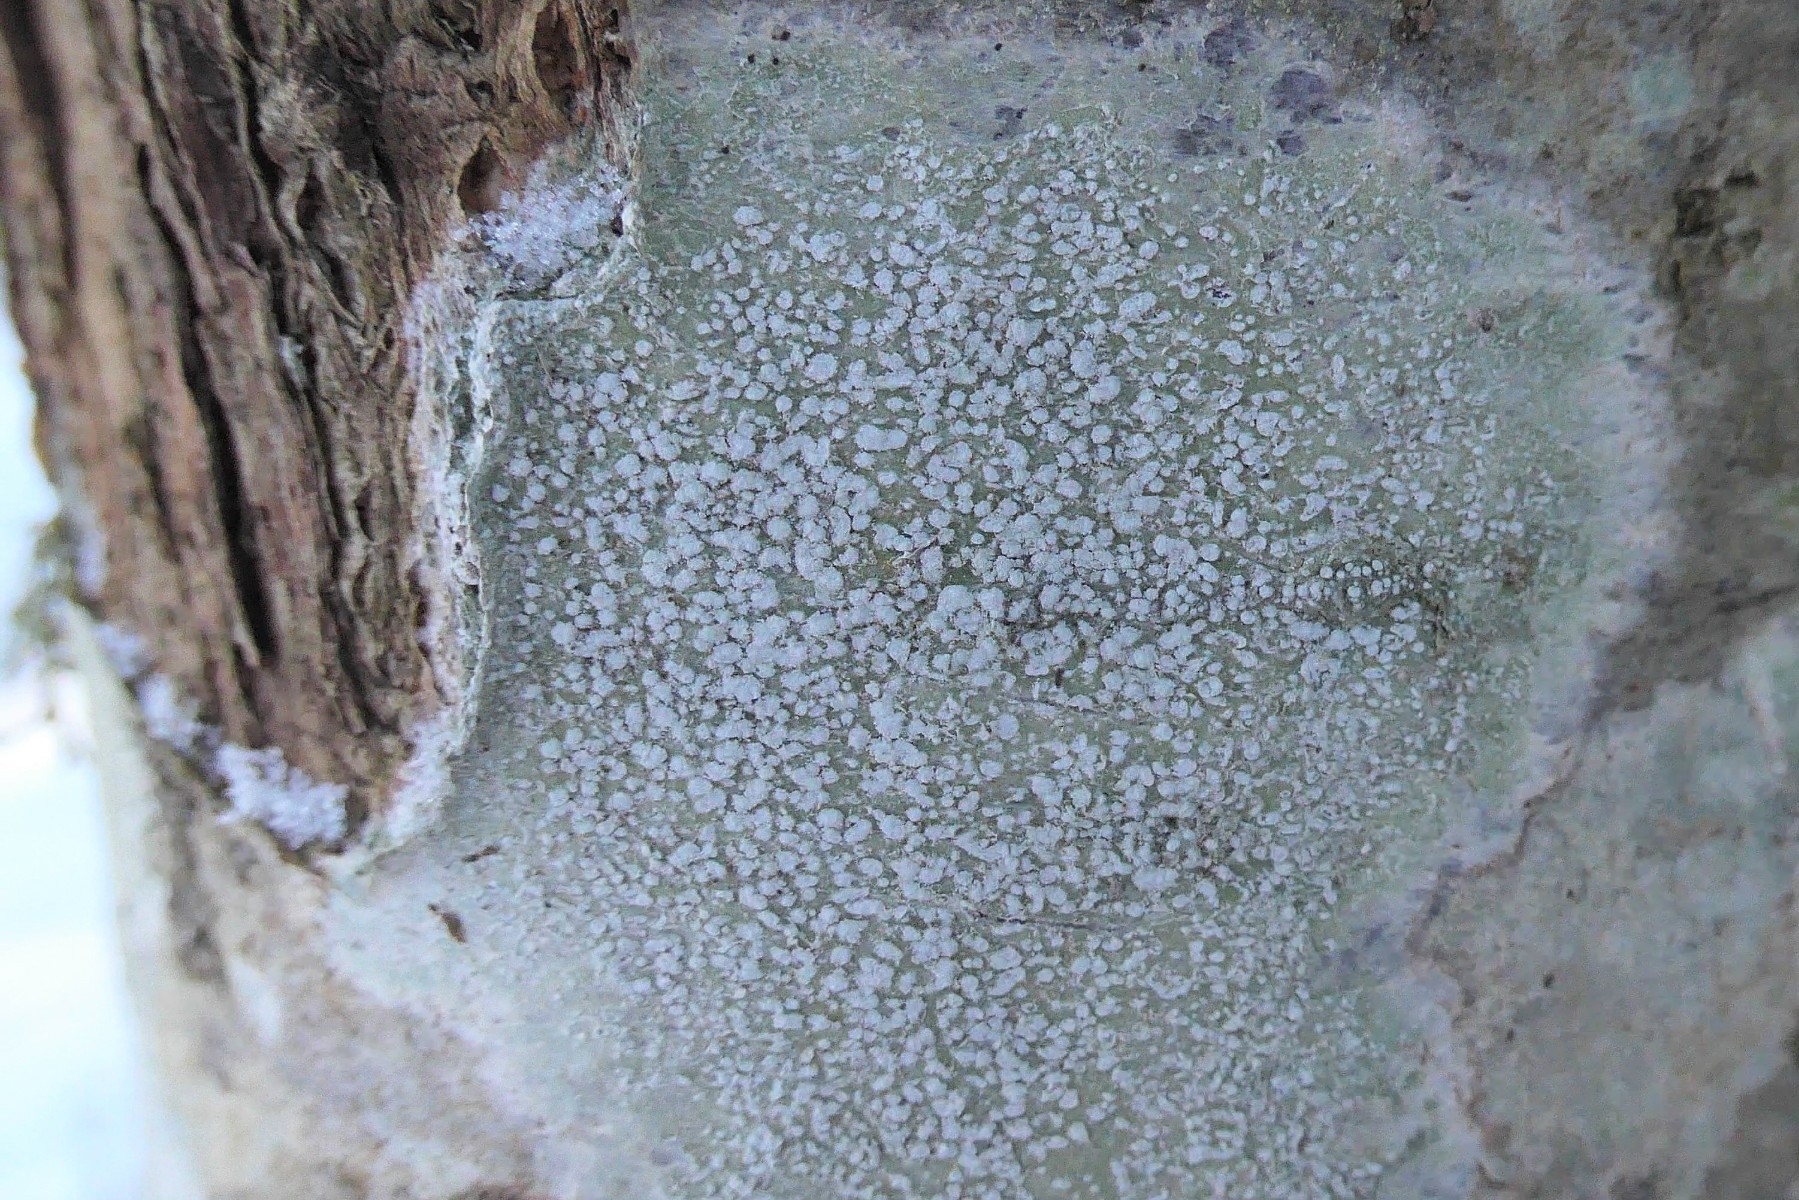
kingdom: Fungi
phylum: Ascomycota
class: Lecanoromycetes
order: Pertusariales
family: Pertusariaceae
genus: Lepra
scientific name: Lepra albescens
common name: hvidmelet prikvortelav
